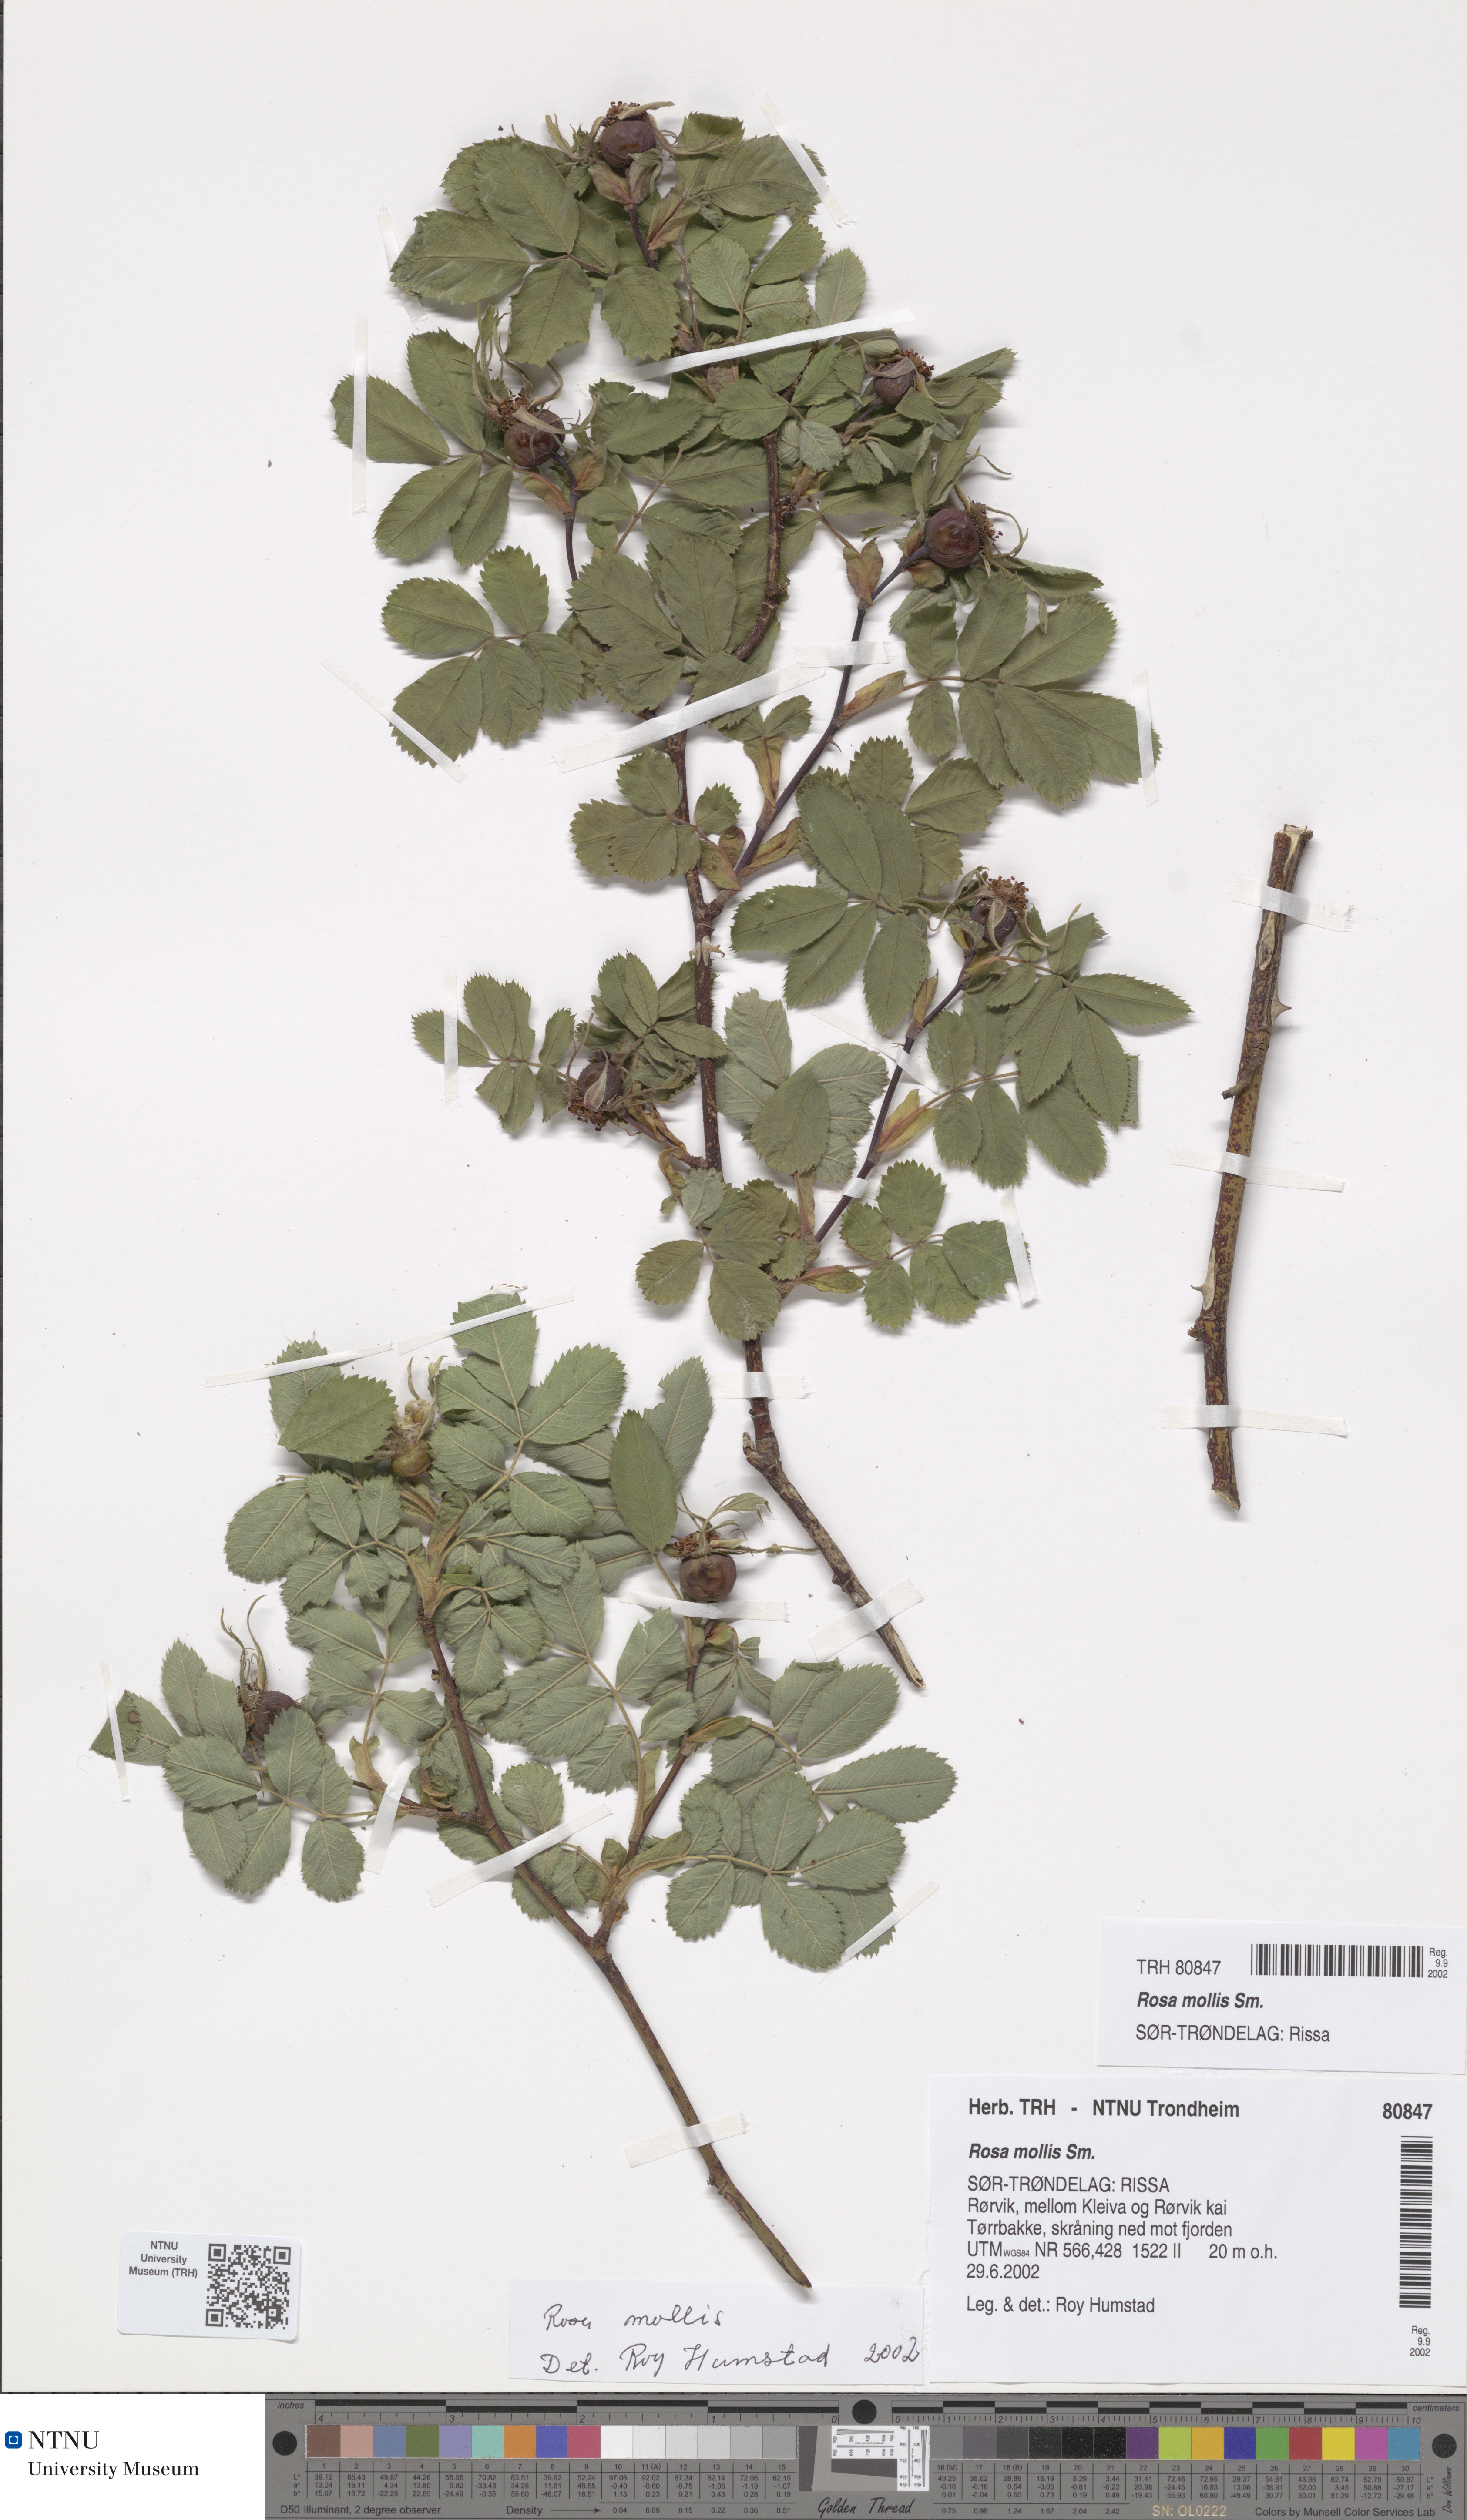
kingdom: Plantae
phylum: Tracheophyta
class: Magnoliopsida
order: Rosales
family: Rosaceae
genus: Rosa
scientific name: Rosa mollis
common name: Rose
